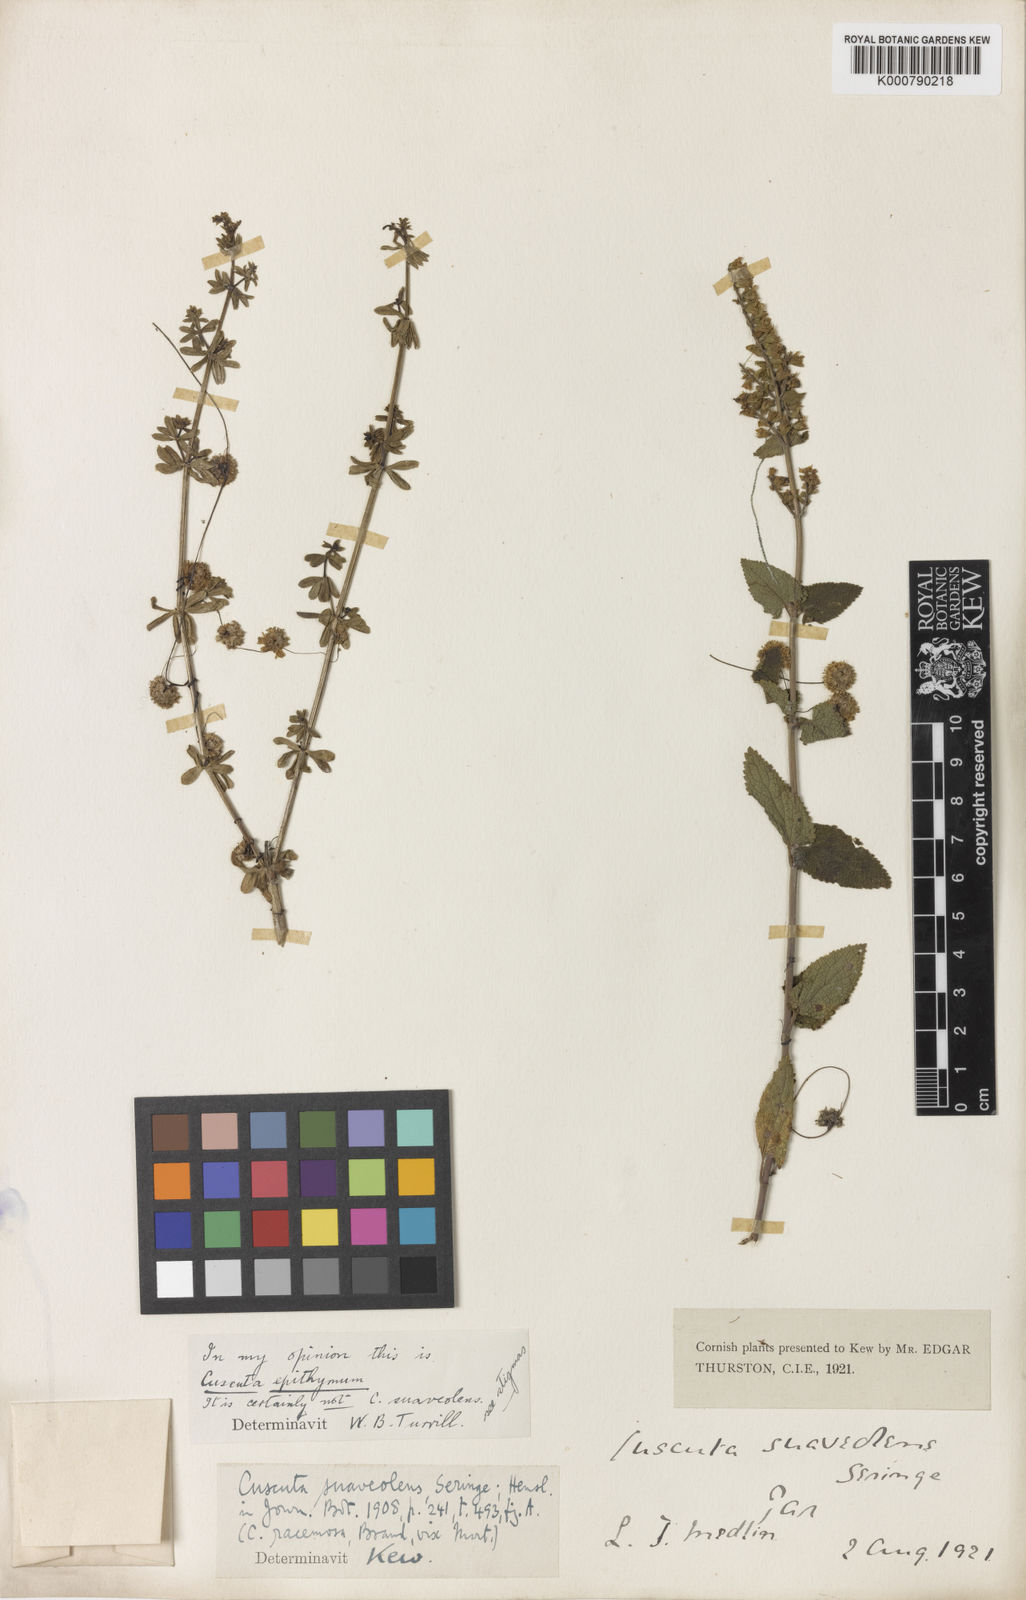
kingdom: Plantae
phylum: Tracheophyta
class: Magnoliopsida
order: Solanales
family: Convolvulaceae
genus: Cuscuta
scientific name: Cuscuta epithymum
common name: Clover dodder
